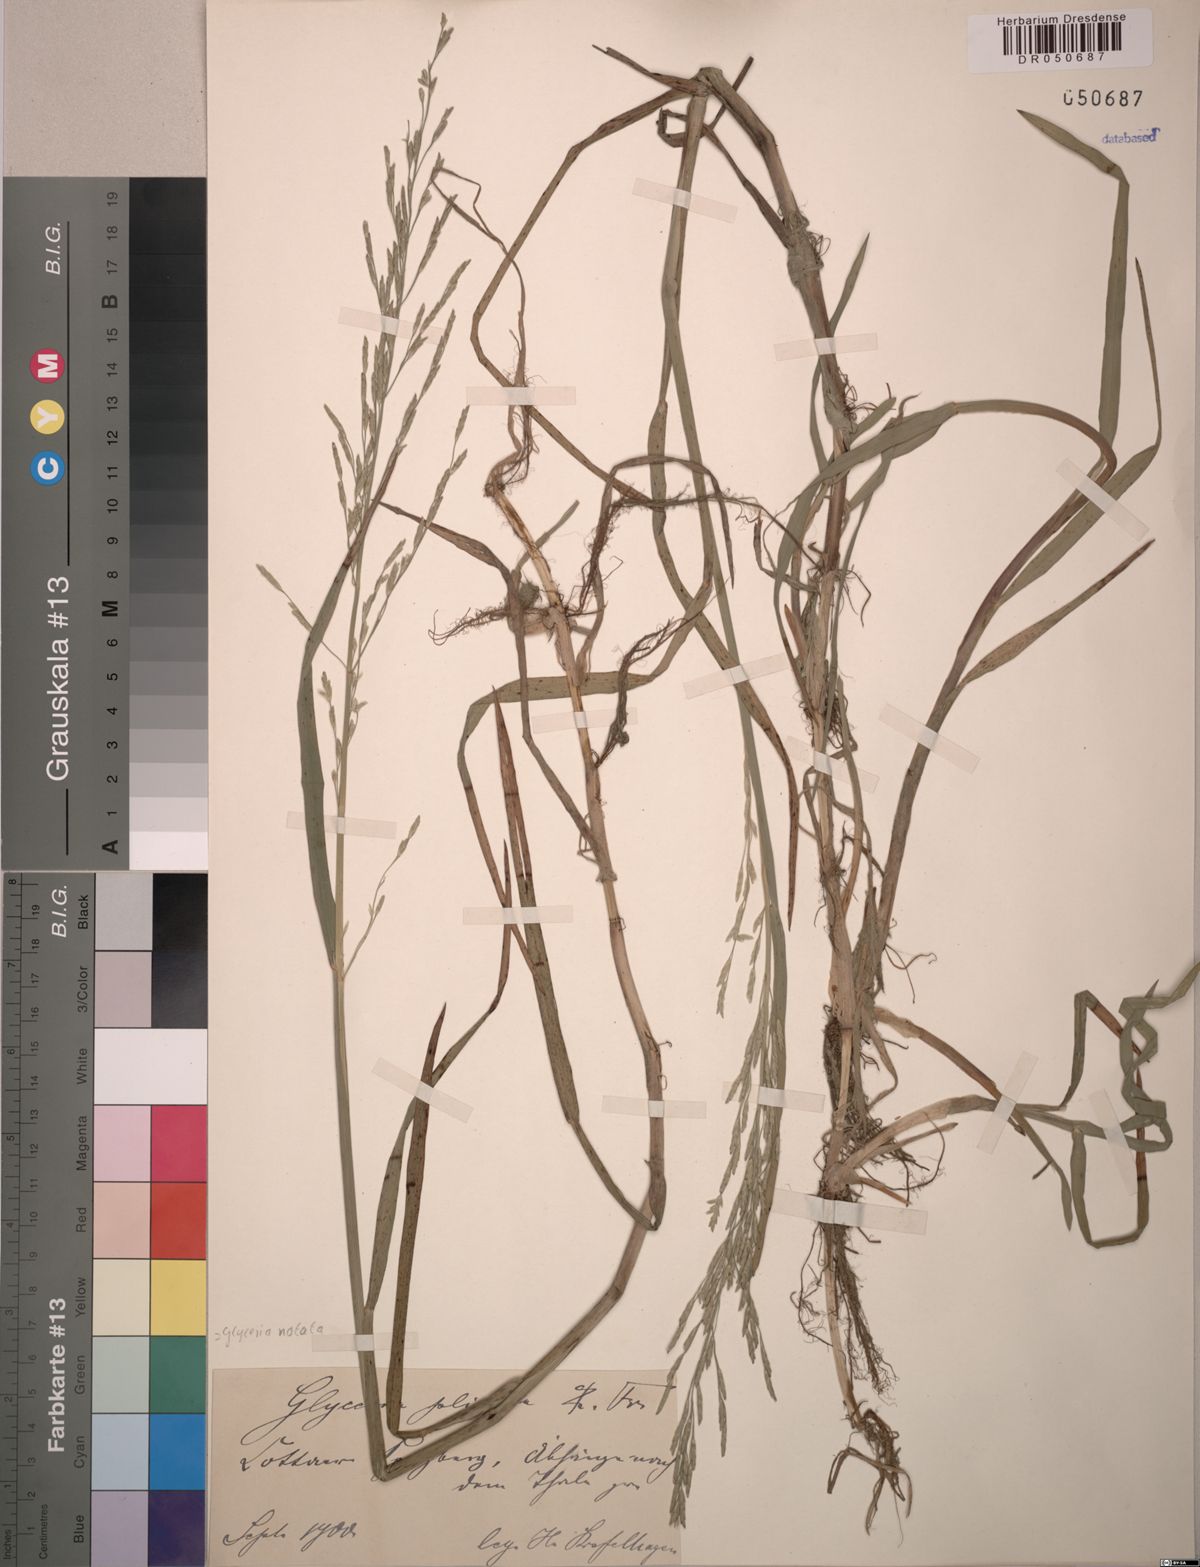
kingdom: Plantae
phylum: Tracheophyta
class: Liliopsida
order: Poales
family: Poaceae
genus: Glyceria
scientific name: Glyceria notata
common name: Plicate sweet-grass
